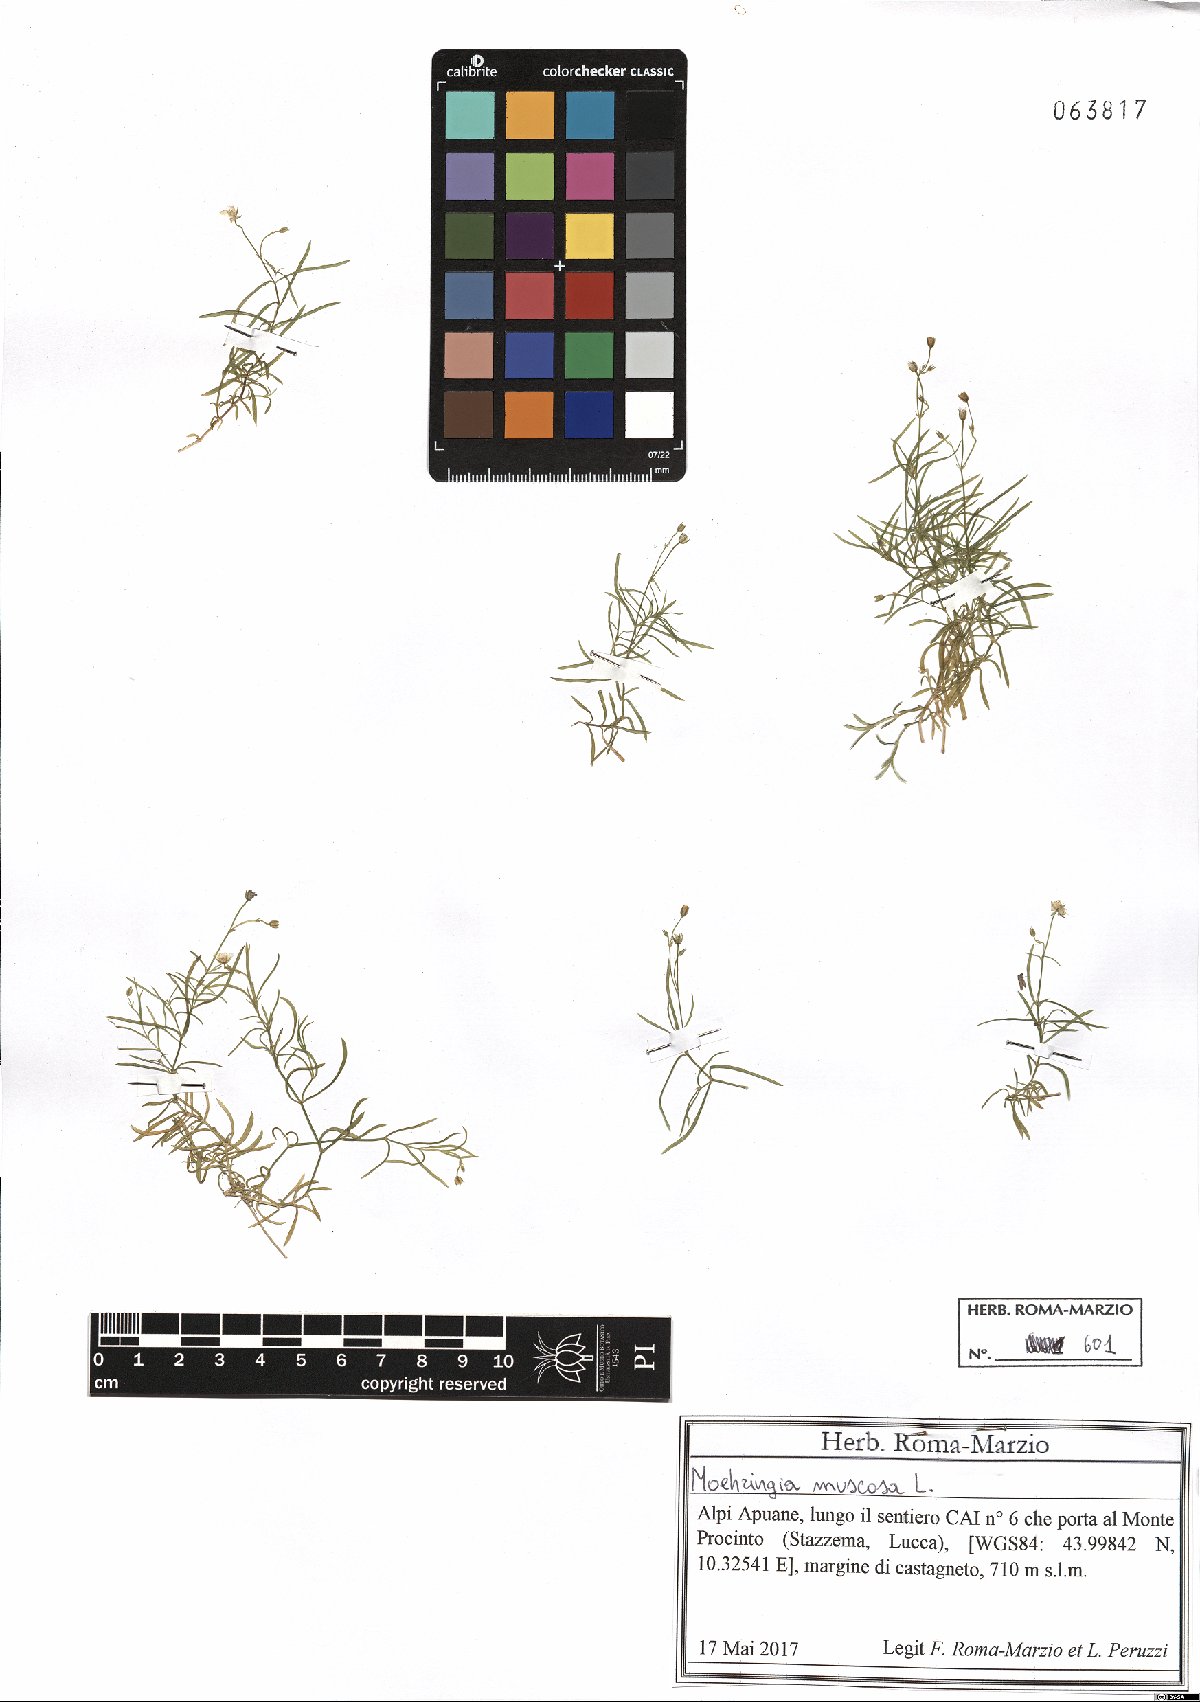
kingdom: Plantae
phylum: Tracheophyta
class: Magnoliopsida
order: Caryophyllales
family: Caryophyllaceae
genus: Moehringia
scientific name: Moehringia muscosa
